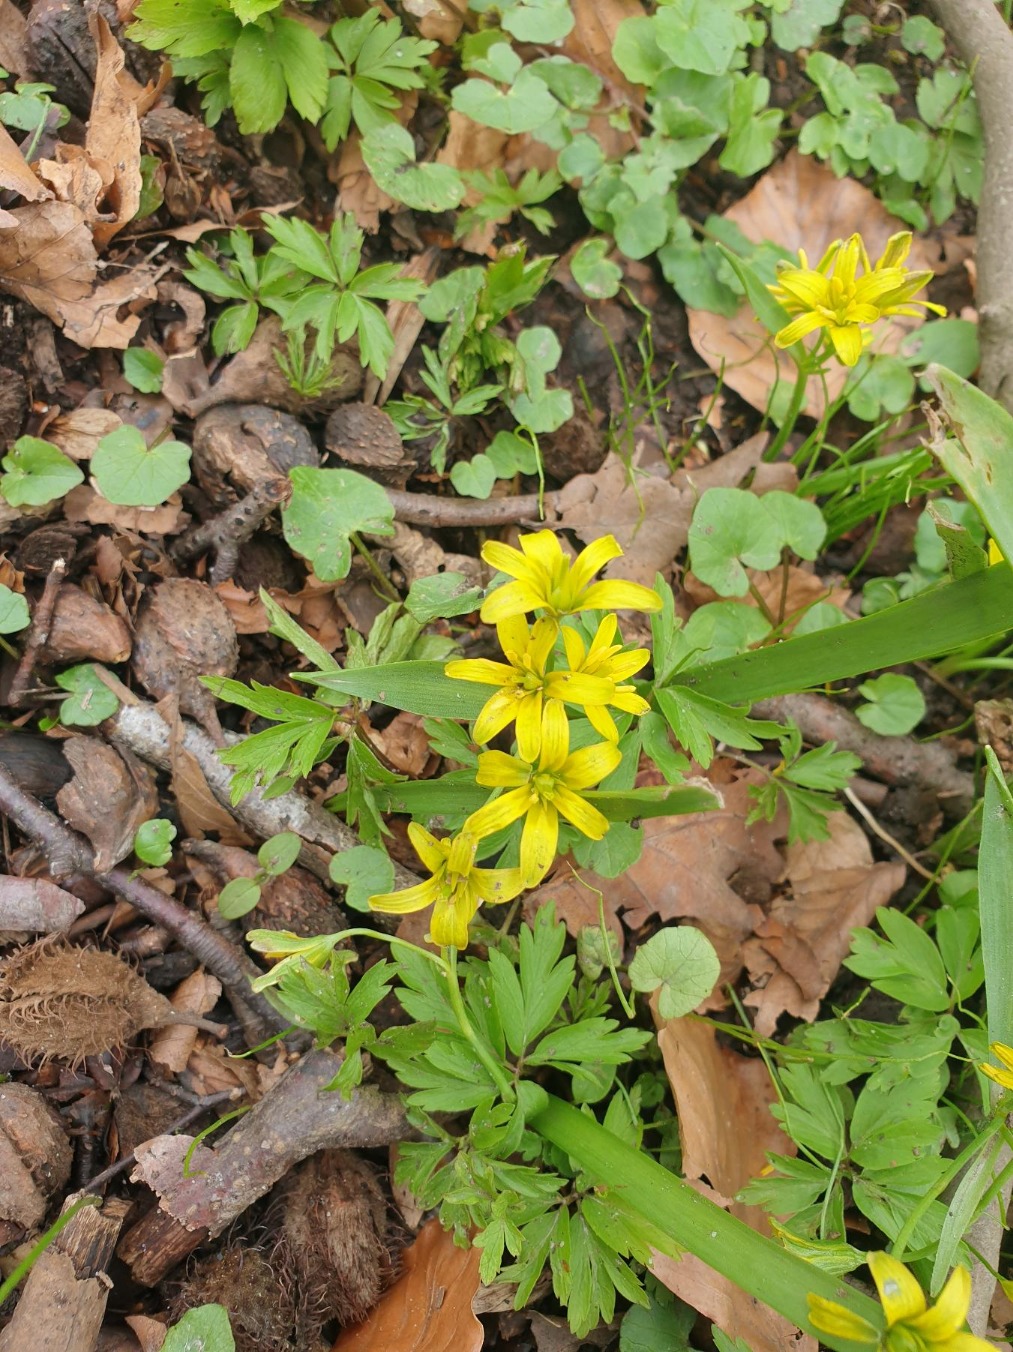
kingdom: Plantae
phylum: Tracheophyta
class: Liliopsida
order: Liliales
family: Liliaceae
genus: Gagea
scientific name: Gagea lutea
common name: Almindelig guldstjerne
